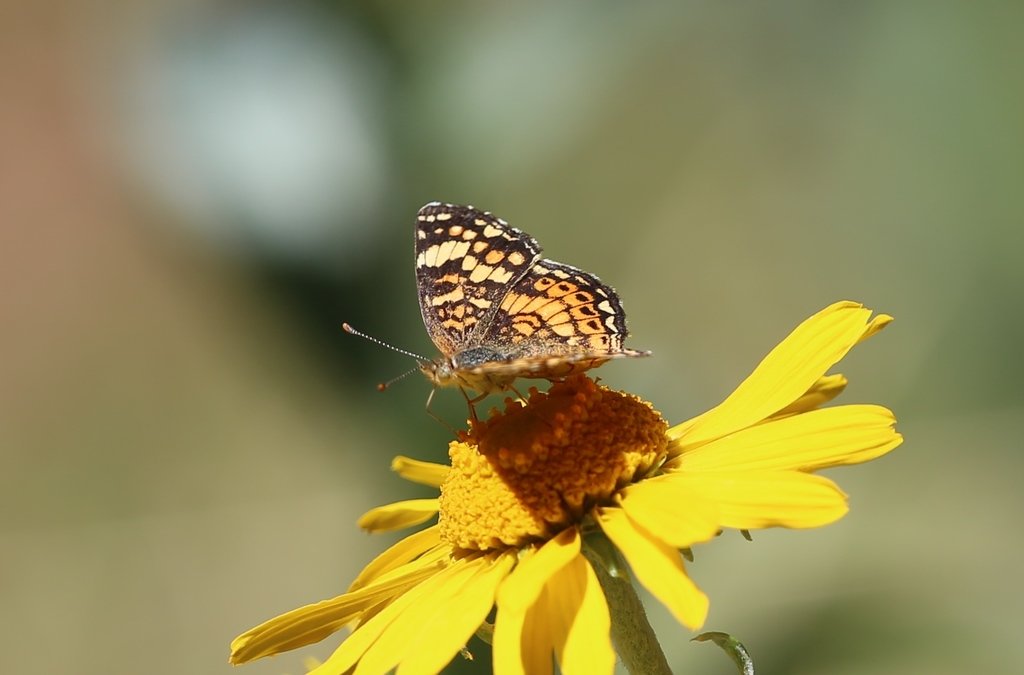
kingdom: Animalia
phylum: Arthropoda
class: Insecta
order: Lepidoptera
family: Nymphalidae
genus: Phyciodes
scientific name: Phyciodes picta
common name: Painted Crescent
